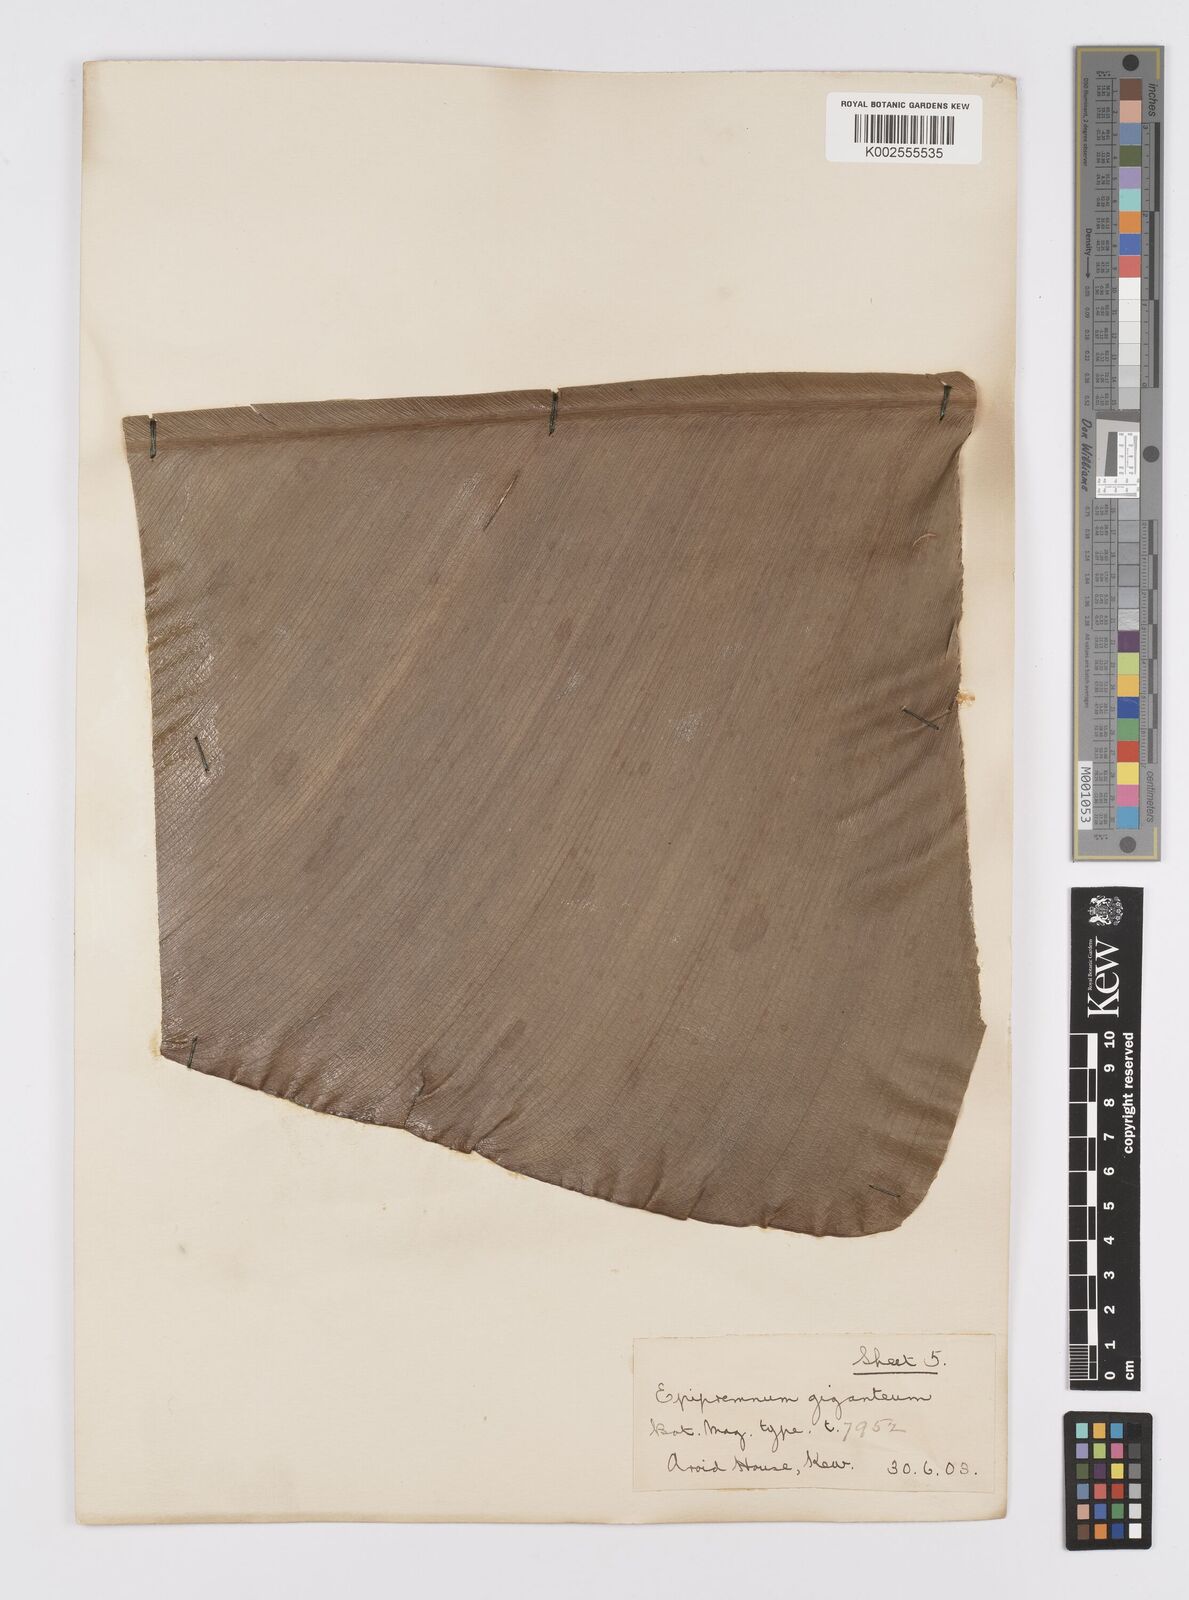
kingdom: Plantae
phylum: Tracheophyta
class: Liliopsida
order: Alismatales
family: Araceae
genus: Epipremnum
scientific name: Epipremnum giganteum
